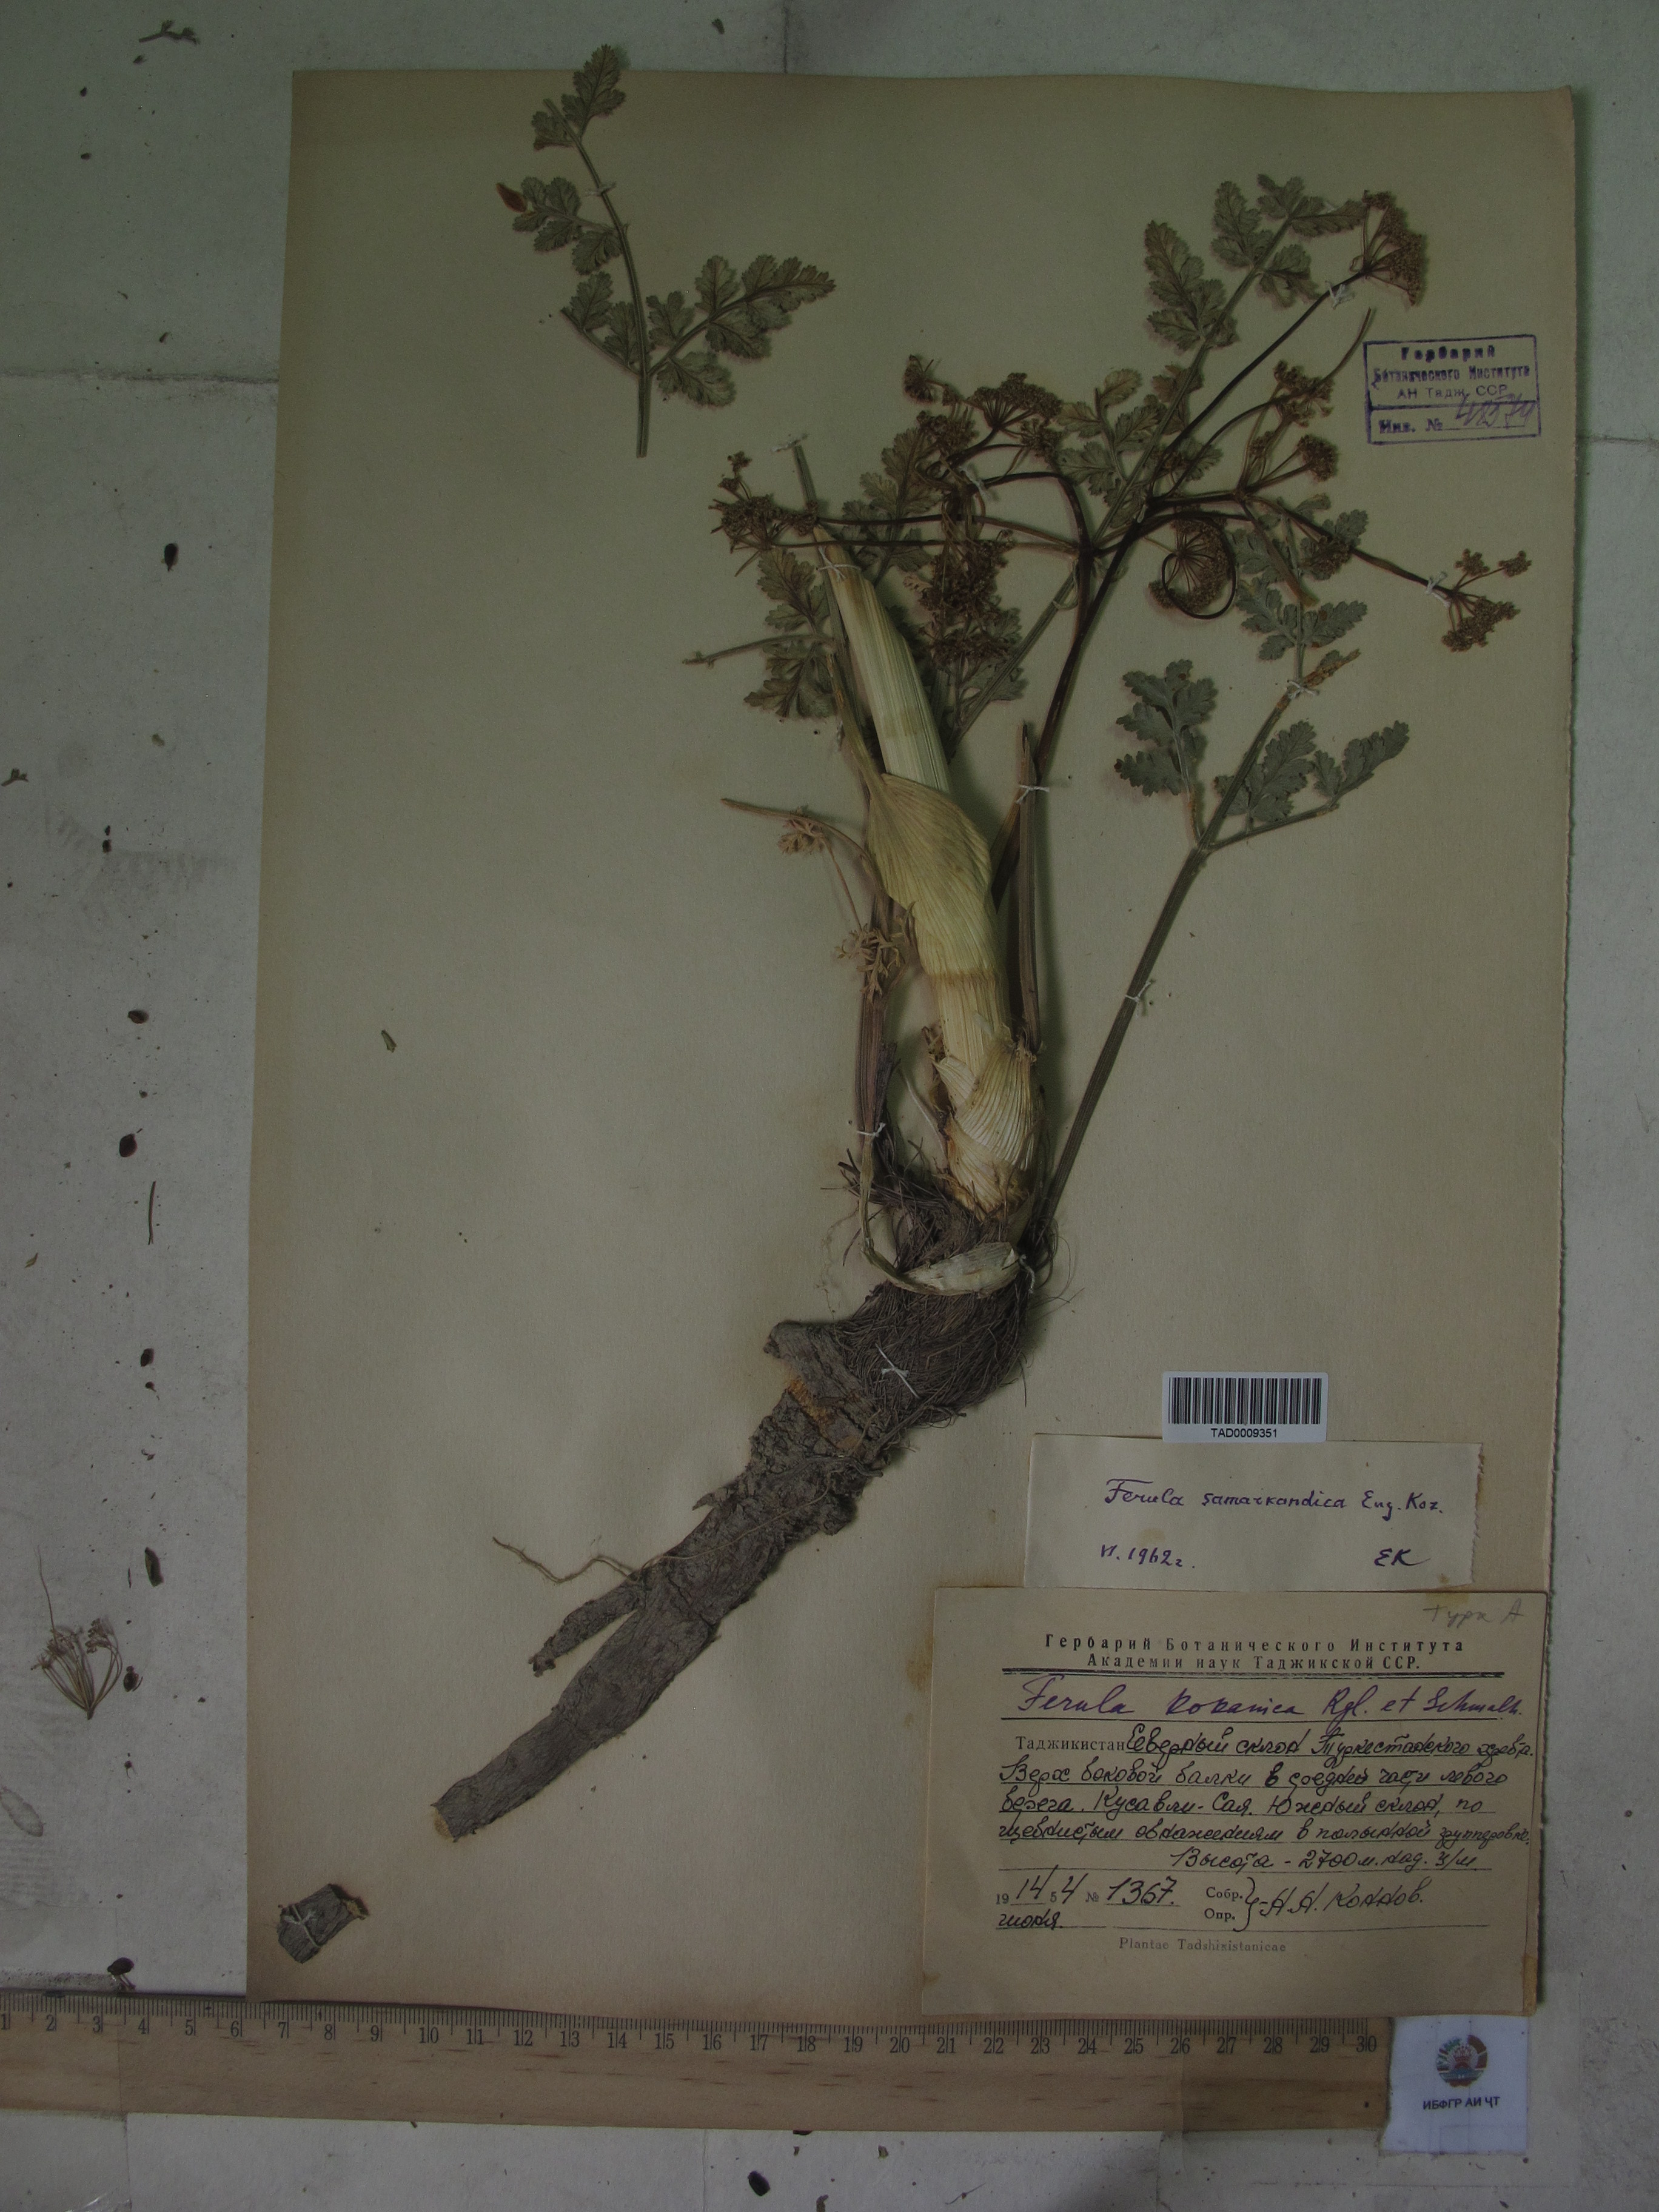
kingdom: Plantae
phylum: Tracheophyta
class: Magnoliopsida
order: Apiales
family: Apiaceae
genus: Ferula
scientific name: Ferula samarkandica
